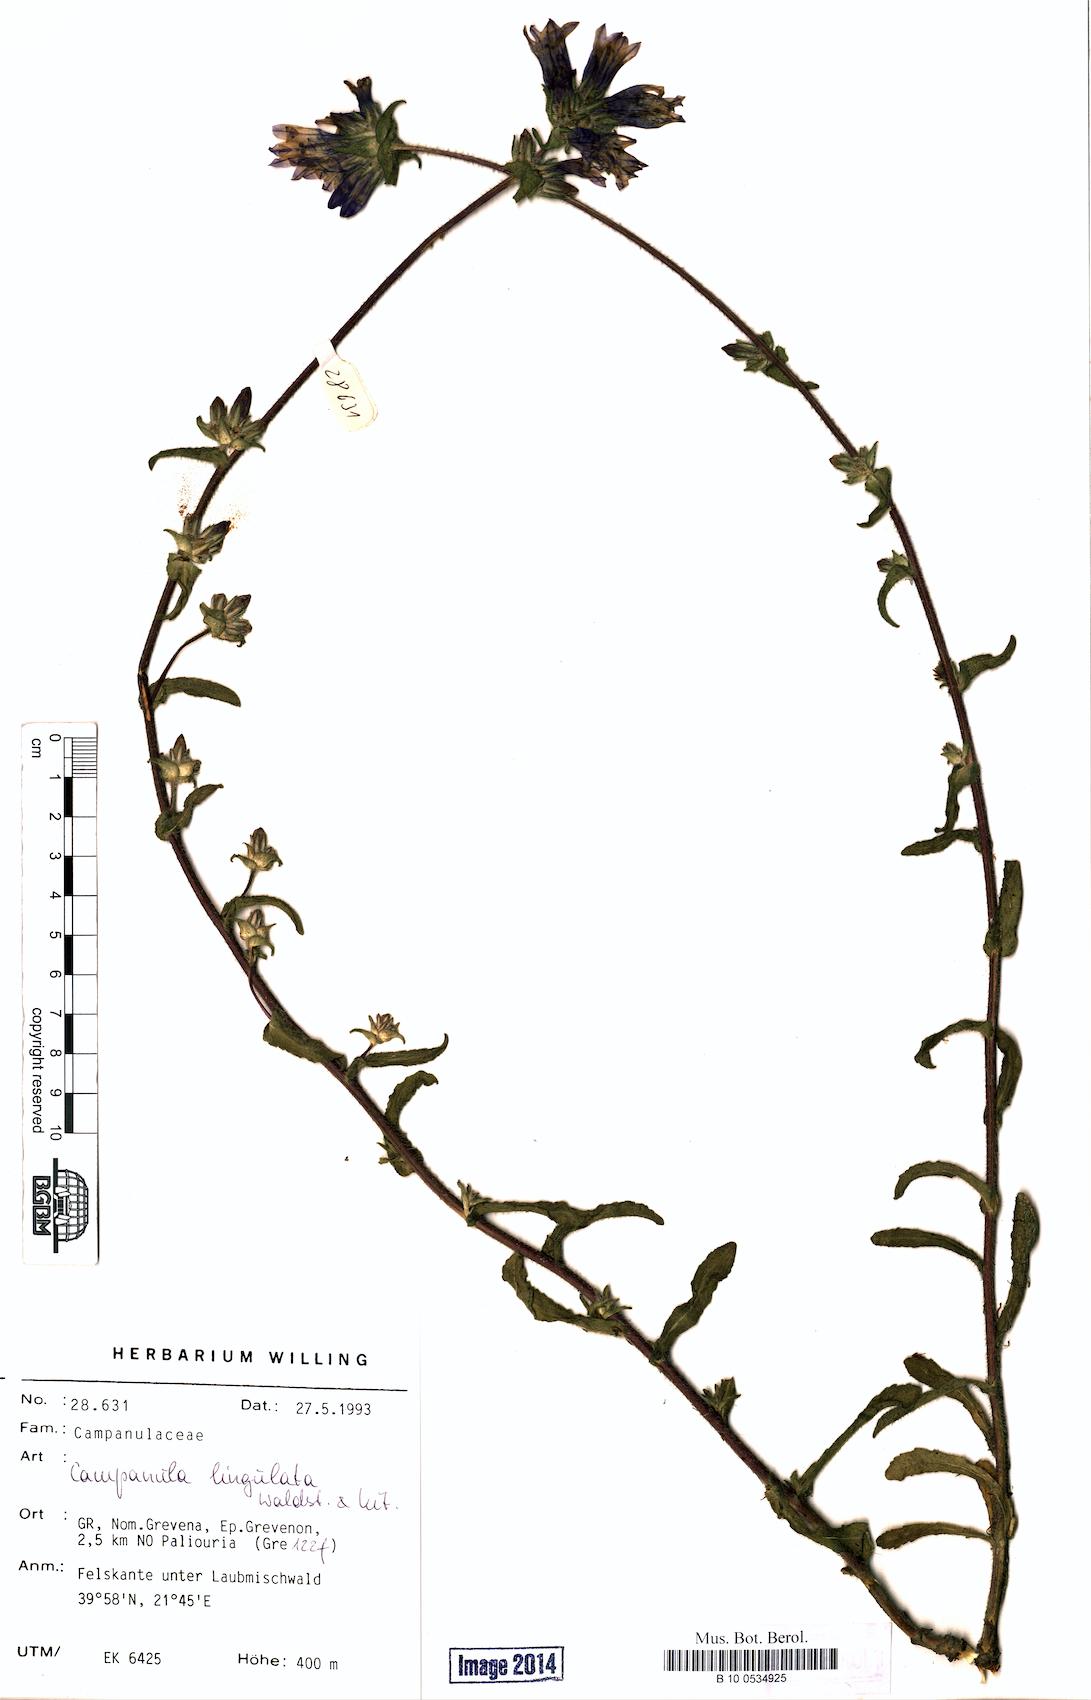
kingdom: Plantae
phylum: Tracheophyta
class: Magnoliopsida
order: Asterales
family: Campanulaceae
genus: Campanula
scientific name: Campanula lingulata
